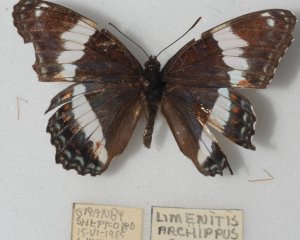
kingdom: Animalia
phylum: Arthropoda
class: Insecta
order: Lepidoptera
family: Nymphalidae
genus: Limenitis
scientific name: Limenitis arthemis
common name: Red-spotted Admiral
